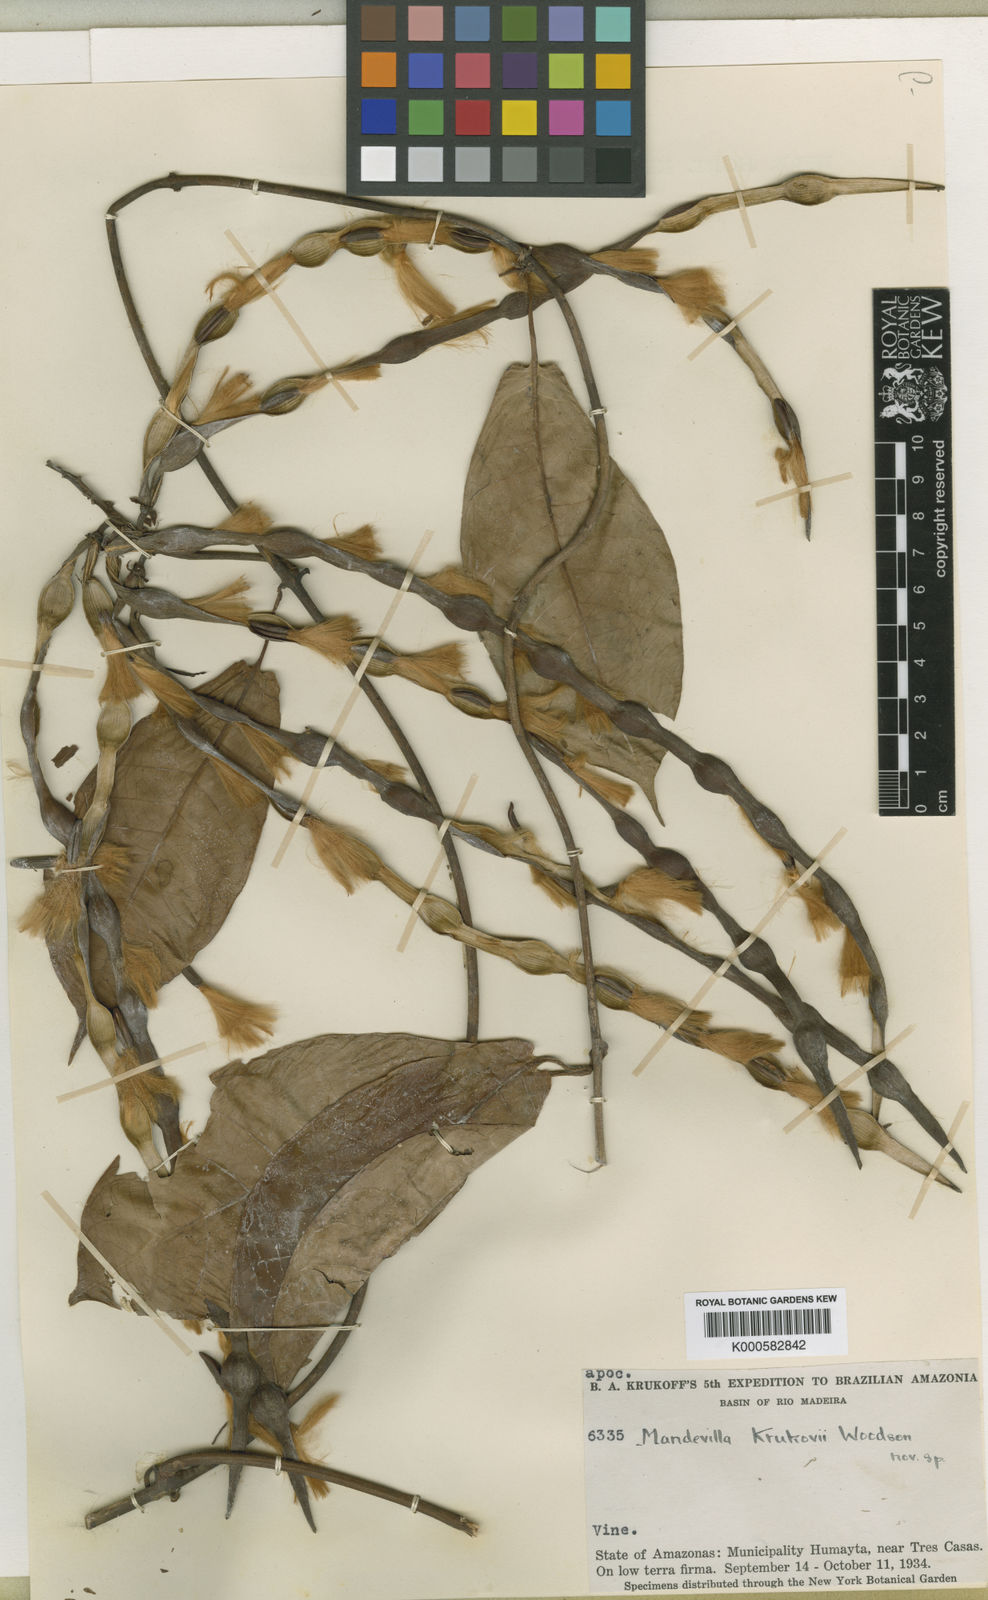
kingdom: Plantae
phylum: Tracheophyta
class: Magnoliopsida
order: Gentianales
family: Apocynaceae
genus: Mandevilla
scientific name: Mandevilla krukovii
